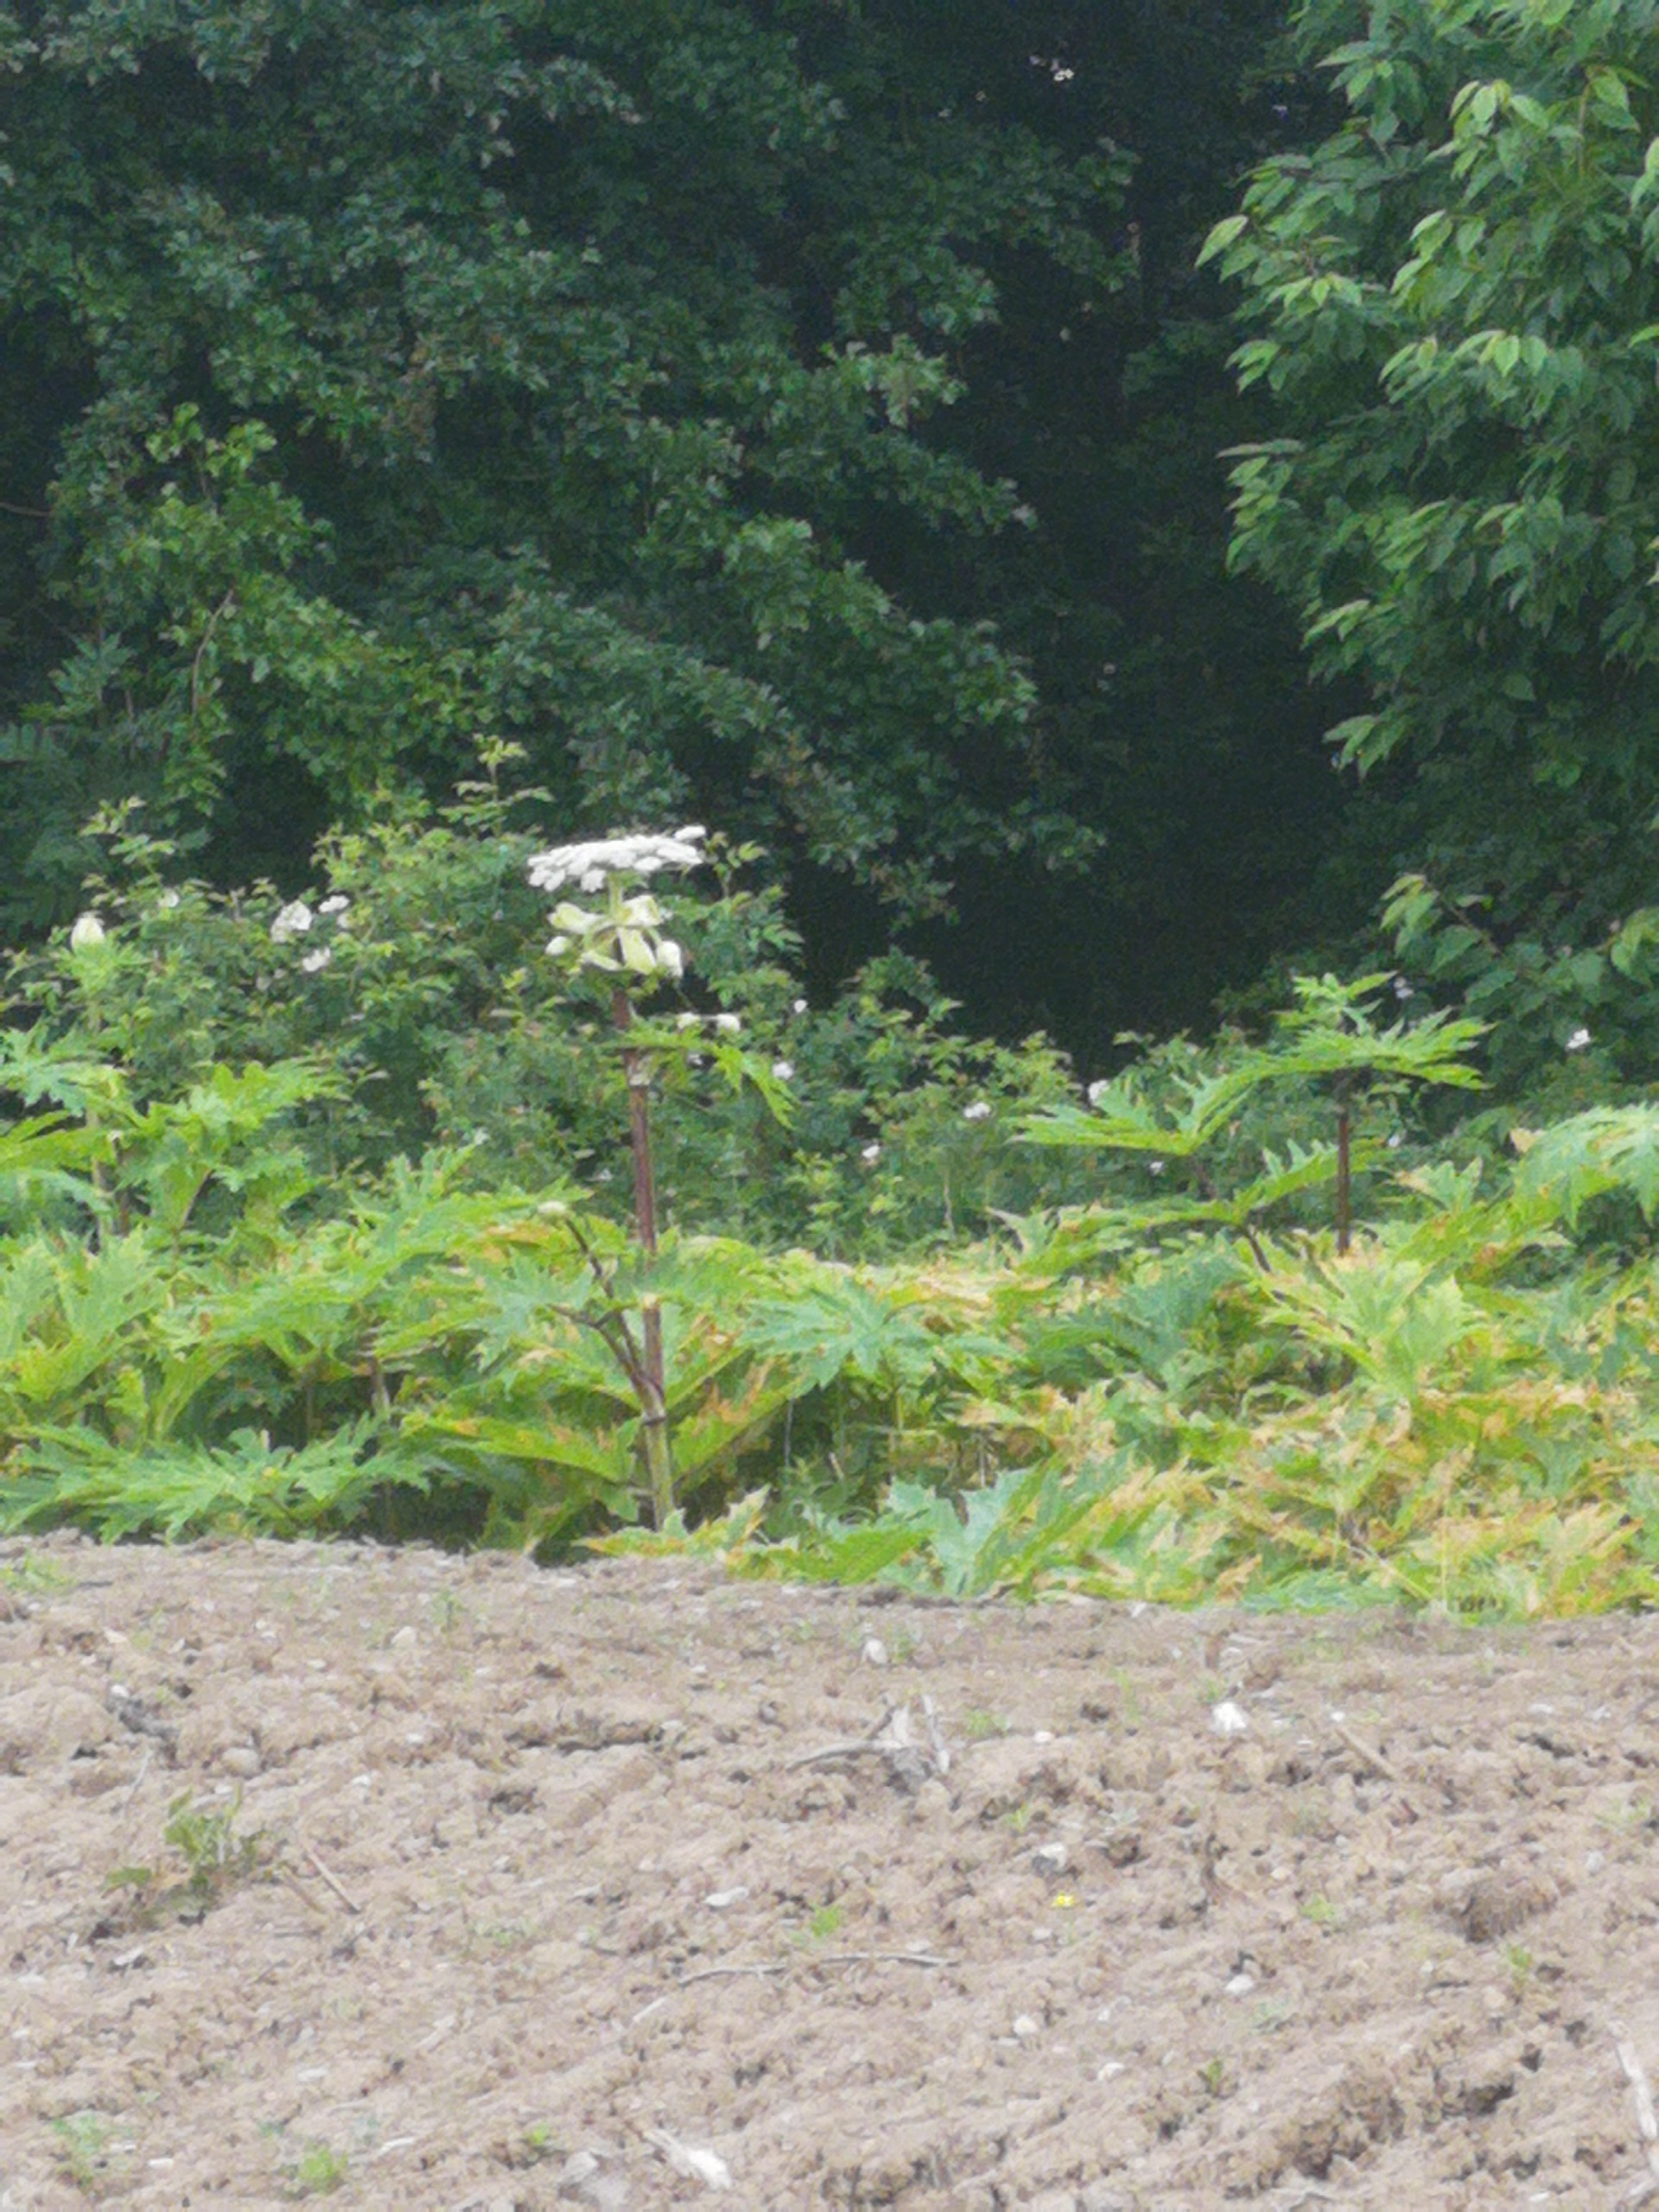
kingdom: Plantae
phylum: Tracheophyta
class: Magnoliopsida
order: Apiales
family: Apiaceae
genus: Heracleum
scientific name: Heracleum mantegazzianum
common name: Kæmpe-bjørneklo
